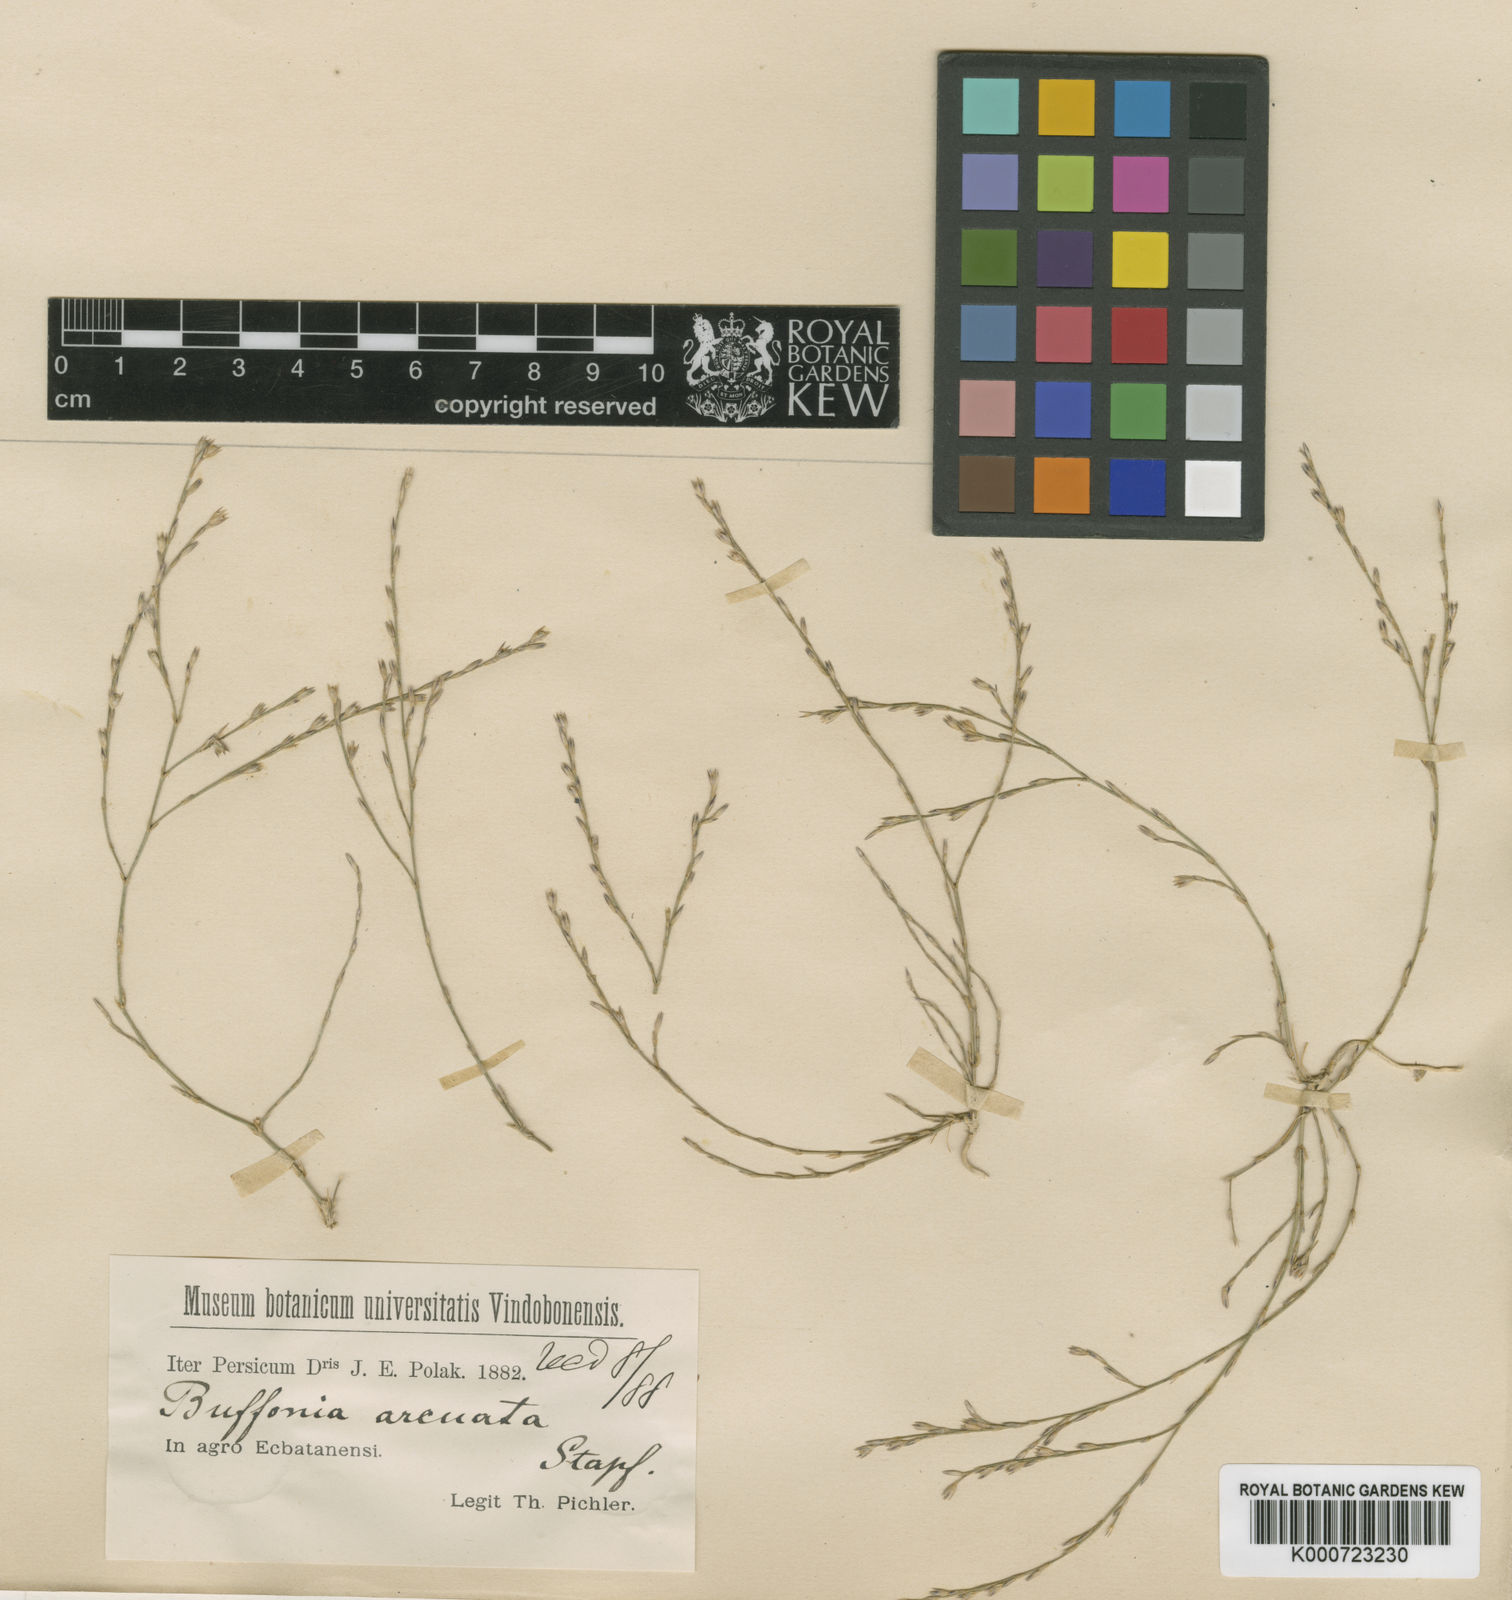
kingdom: Plantae
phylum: Tracheophyta
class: Magnoliopsida
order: Caryophyllales
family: Caryophyllaceae
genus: Bufonia
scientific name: Bufonia oliveriana
